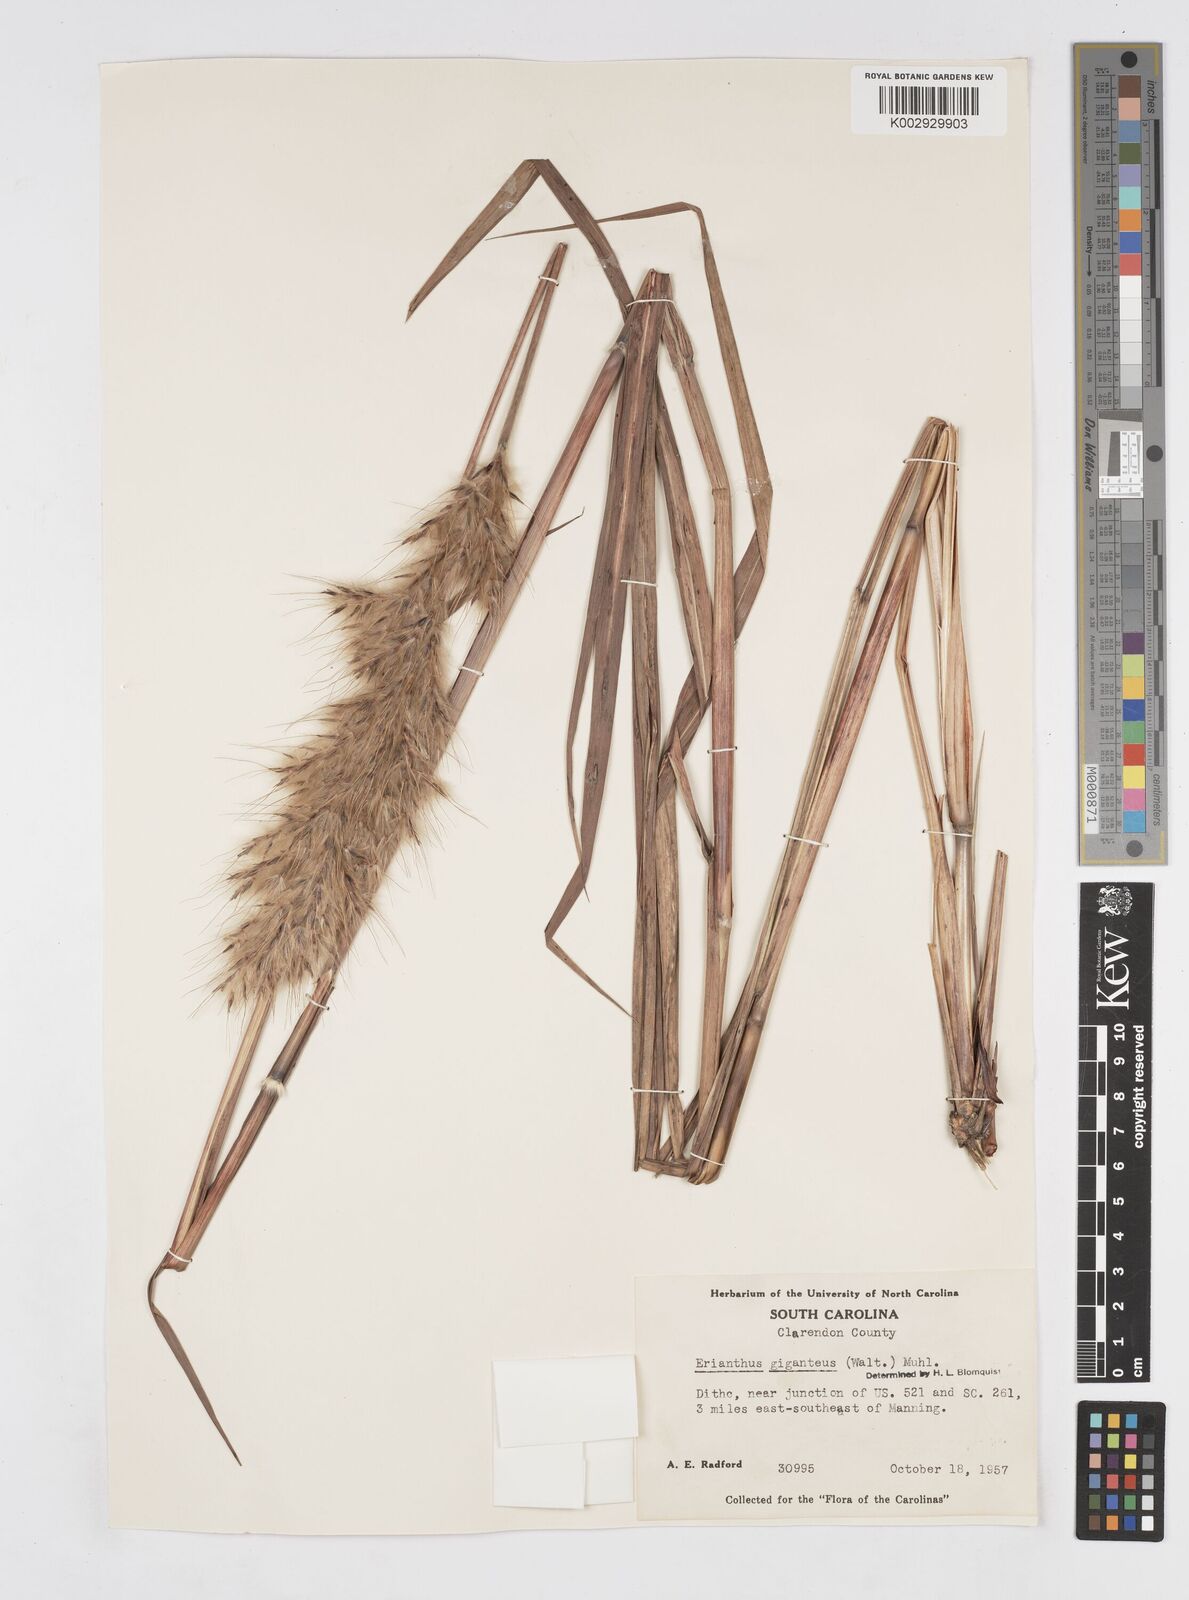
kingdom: Plantae
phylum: Tracheophyta
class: Liliopsida
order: Poales
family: Poaceae
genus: Saccharum
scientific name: Saccharum
